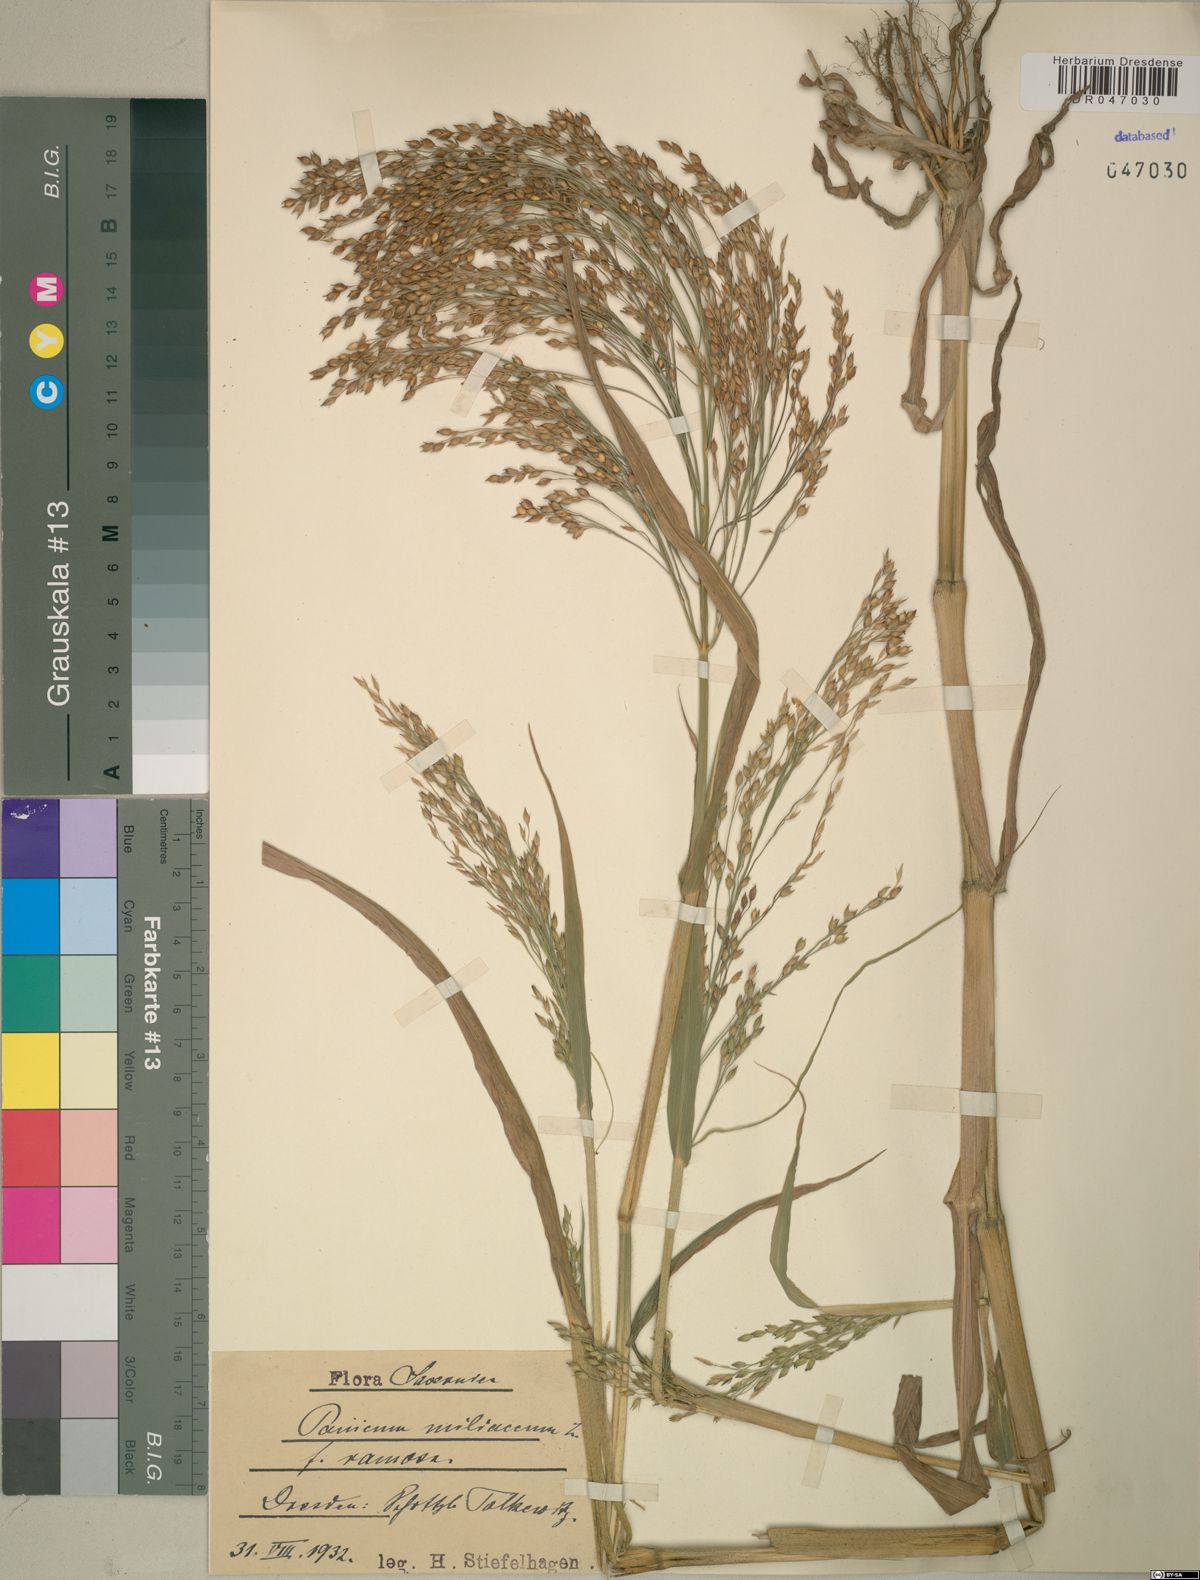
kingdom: Plantae
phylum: Tracheophyta
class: Liliopsida
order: Poales
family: Poaceae
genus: Panicum
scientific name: Panicum miliaceum
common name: Common millet
